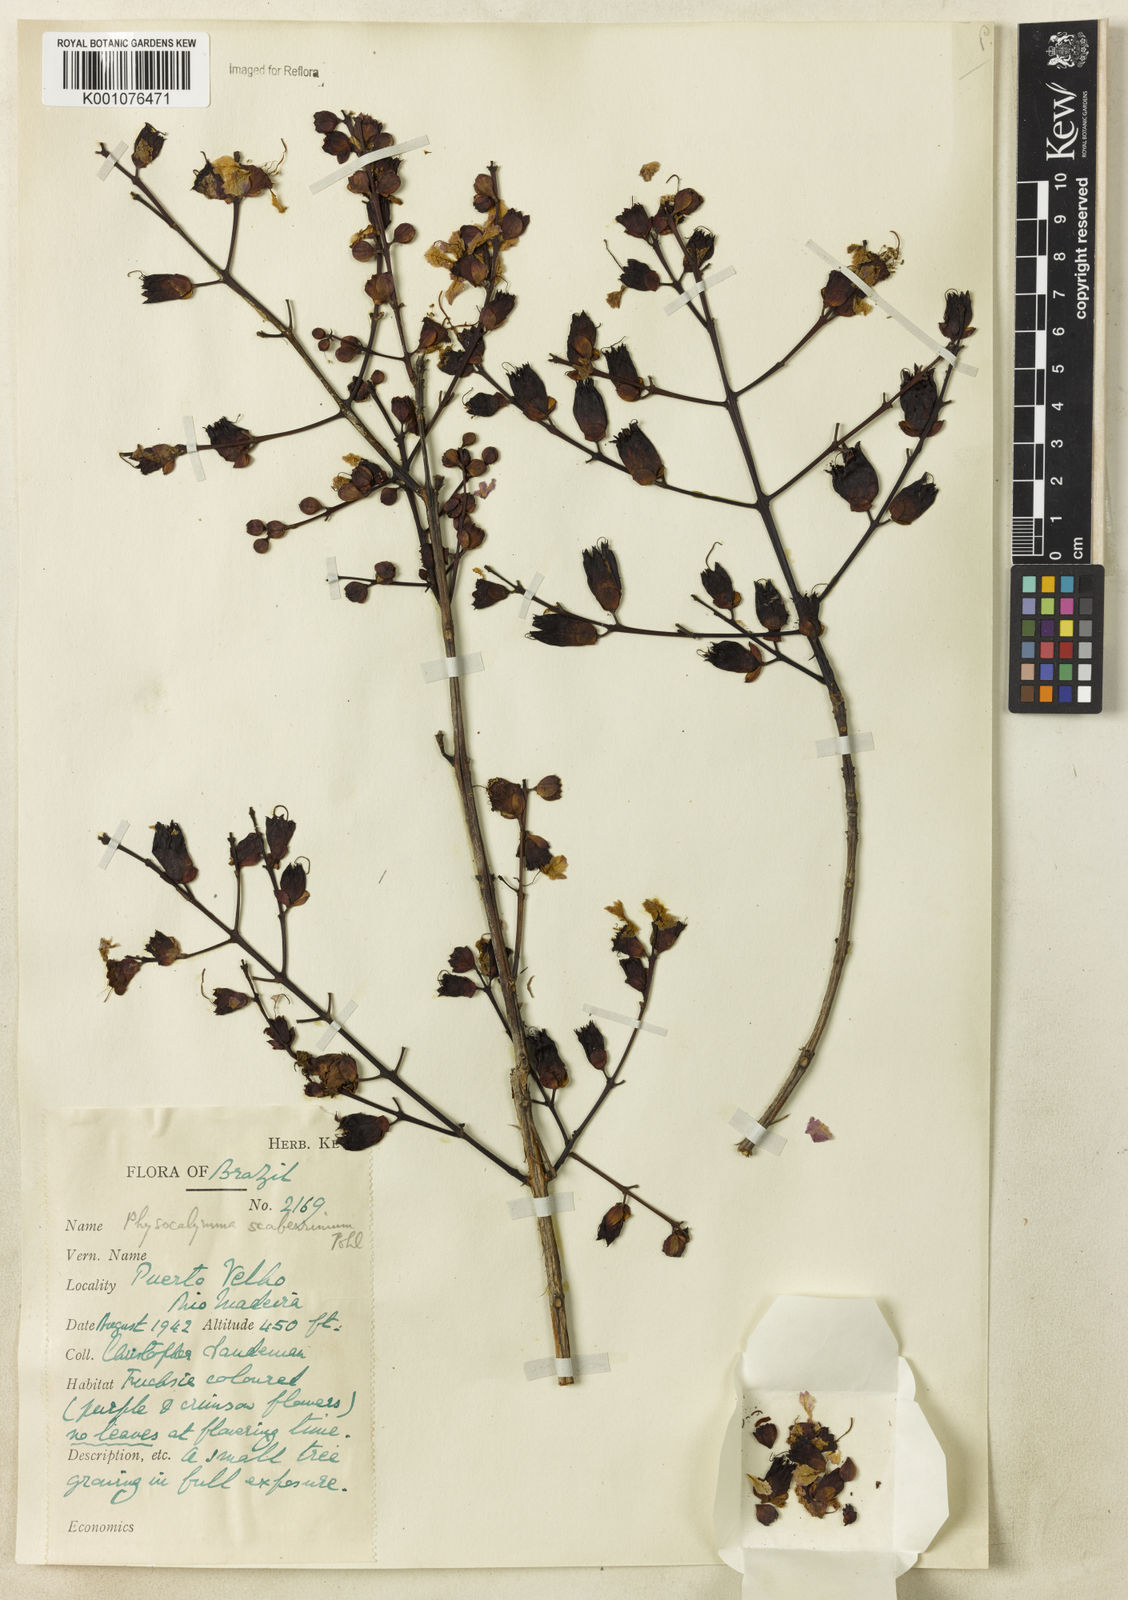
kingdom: Plantae
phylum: Tracheophyta
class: Magnoliopsida
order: Myrtales
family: Lythraceae
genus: Physocalymma
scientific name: Physocalymma scaberrimum
